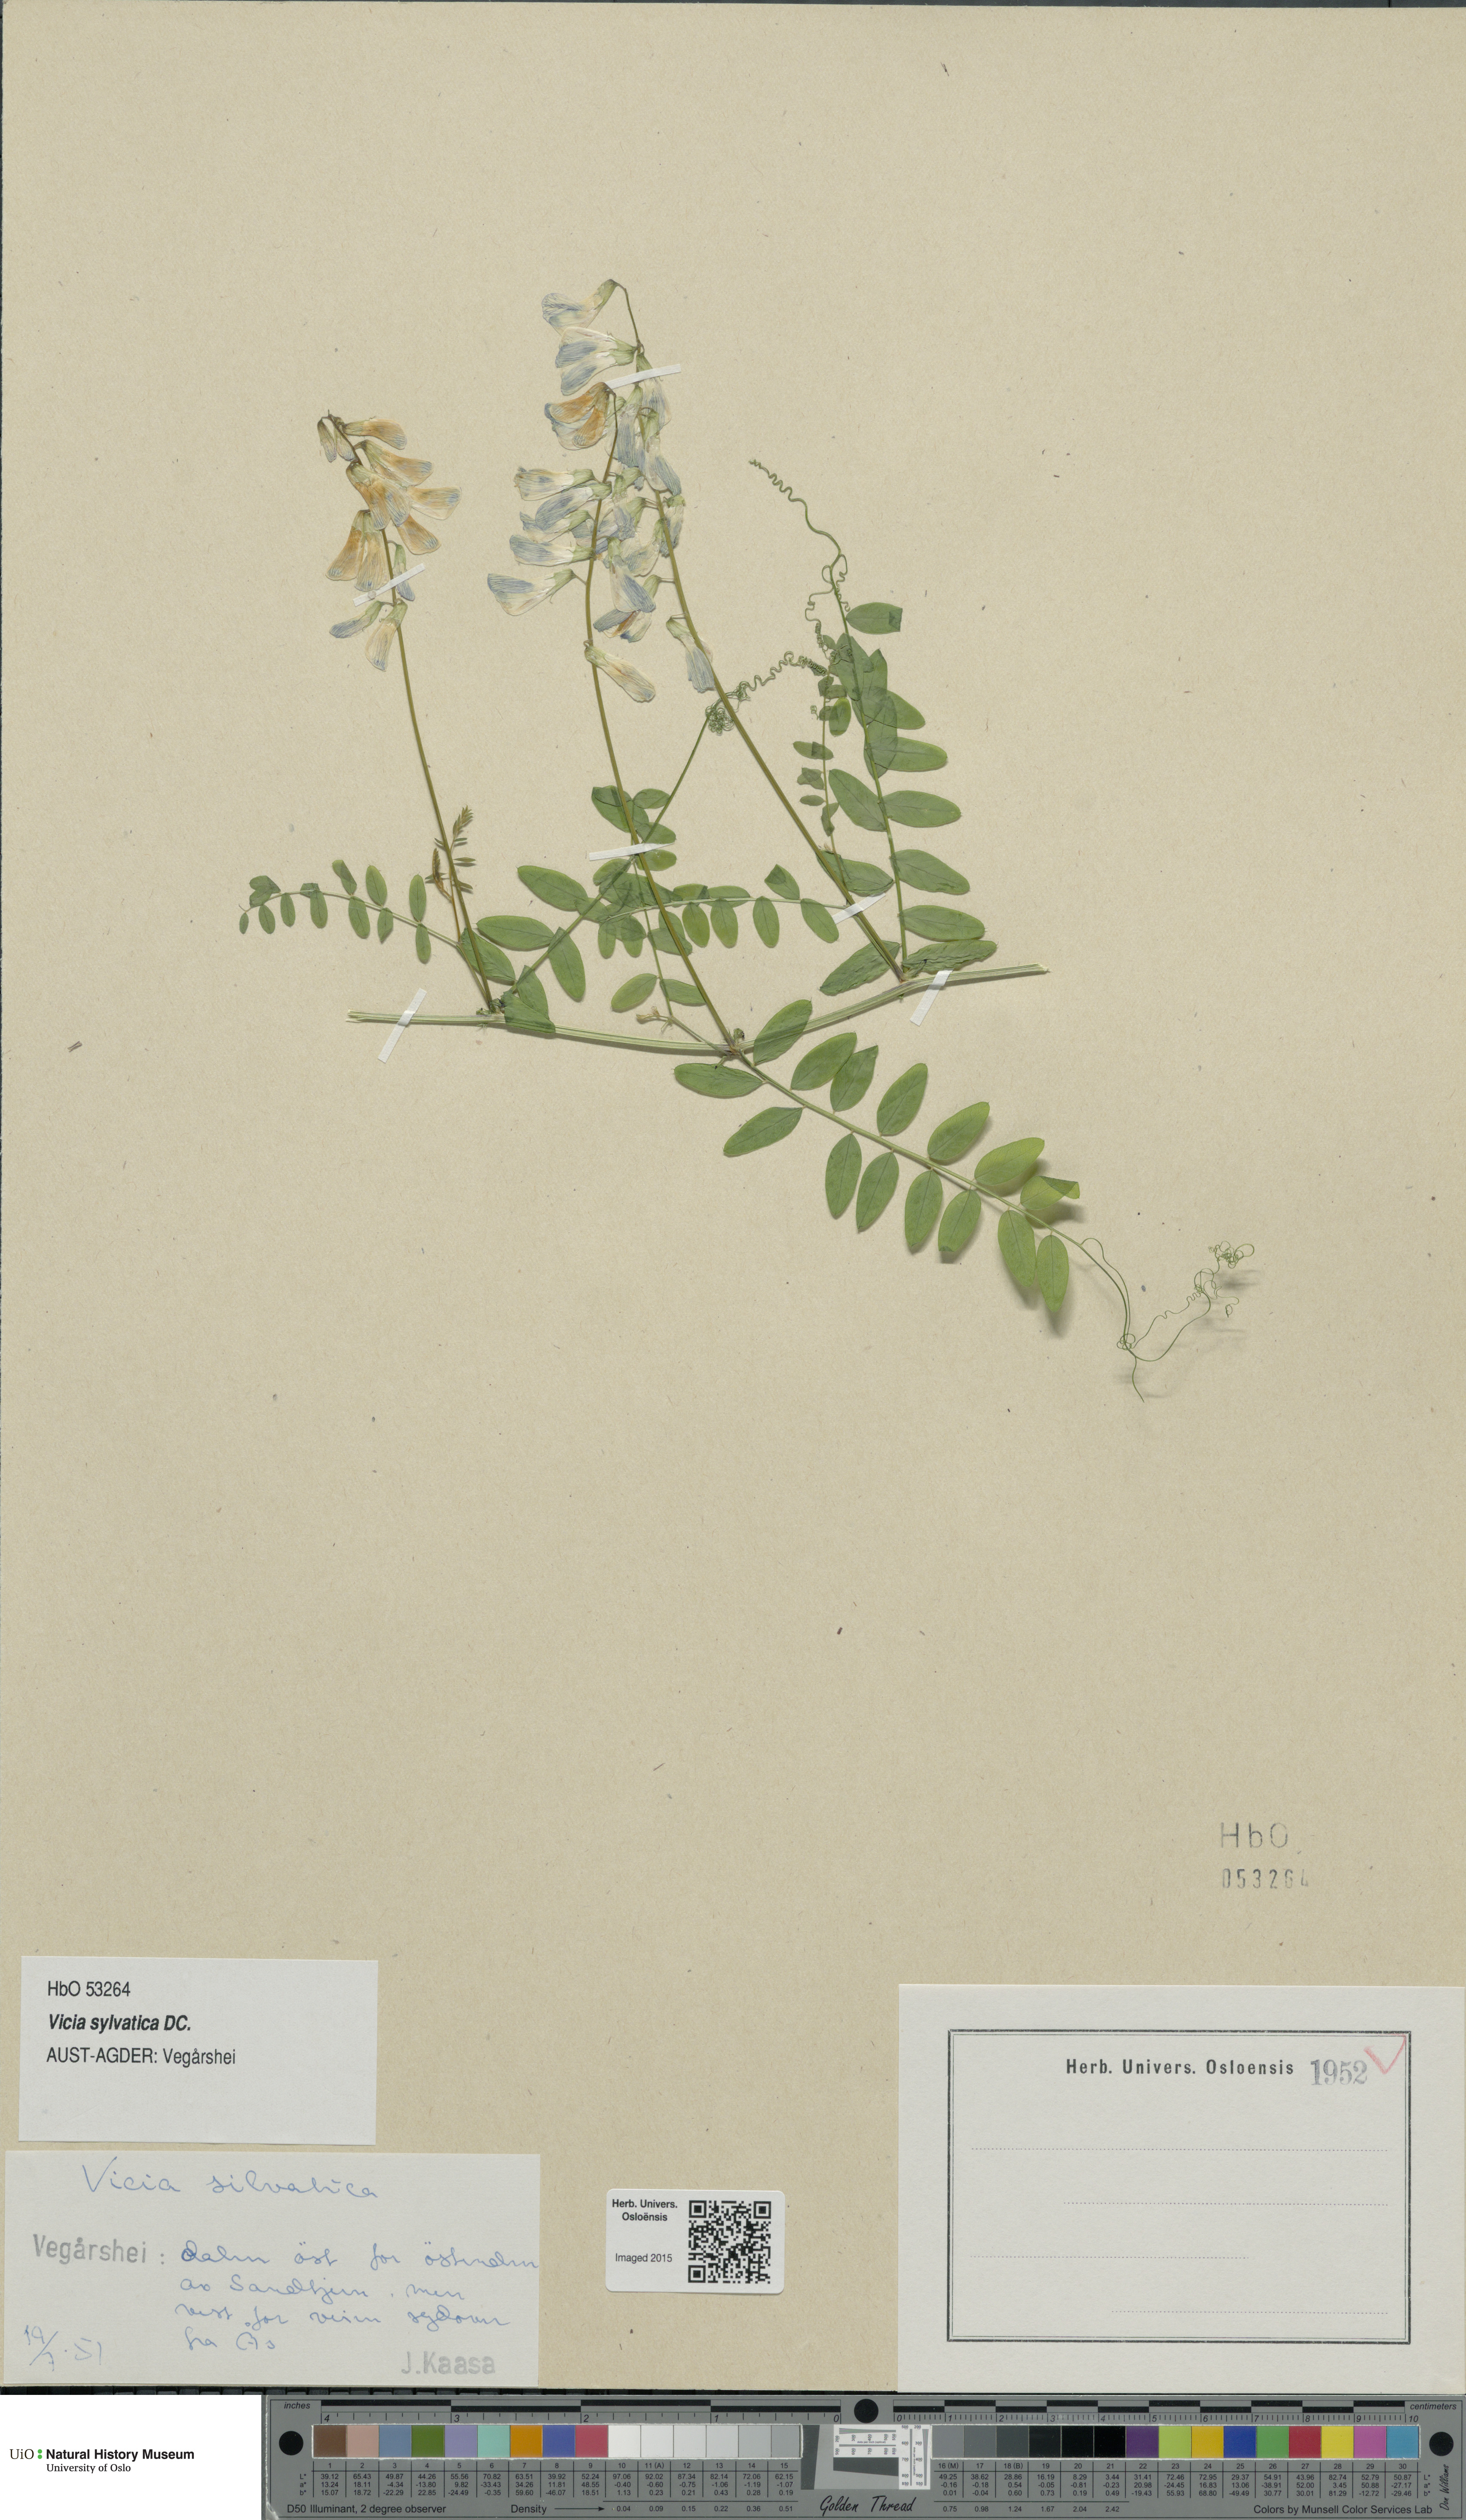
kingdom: Plantae
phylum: Tracheophyta
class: Magnoliopsida
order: Fabales
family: Fabaceae
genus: Vicia
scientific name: Vicia sylvatica
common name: Wood vetch
